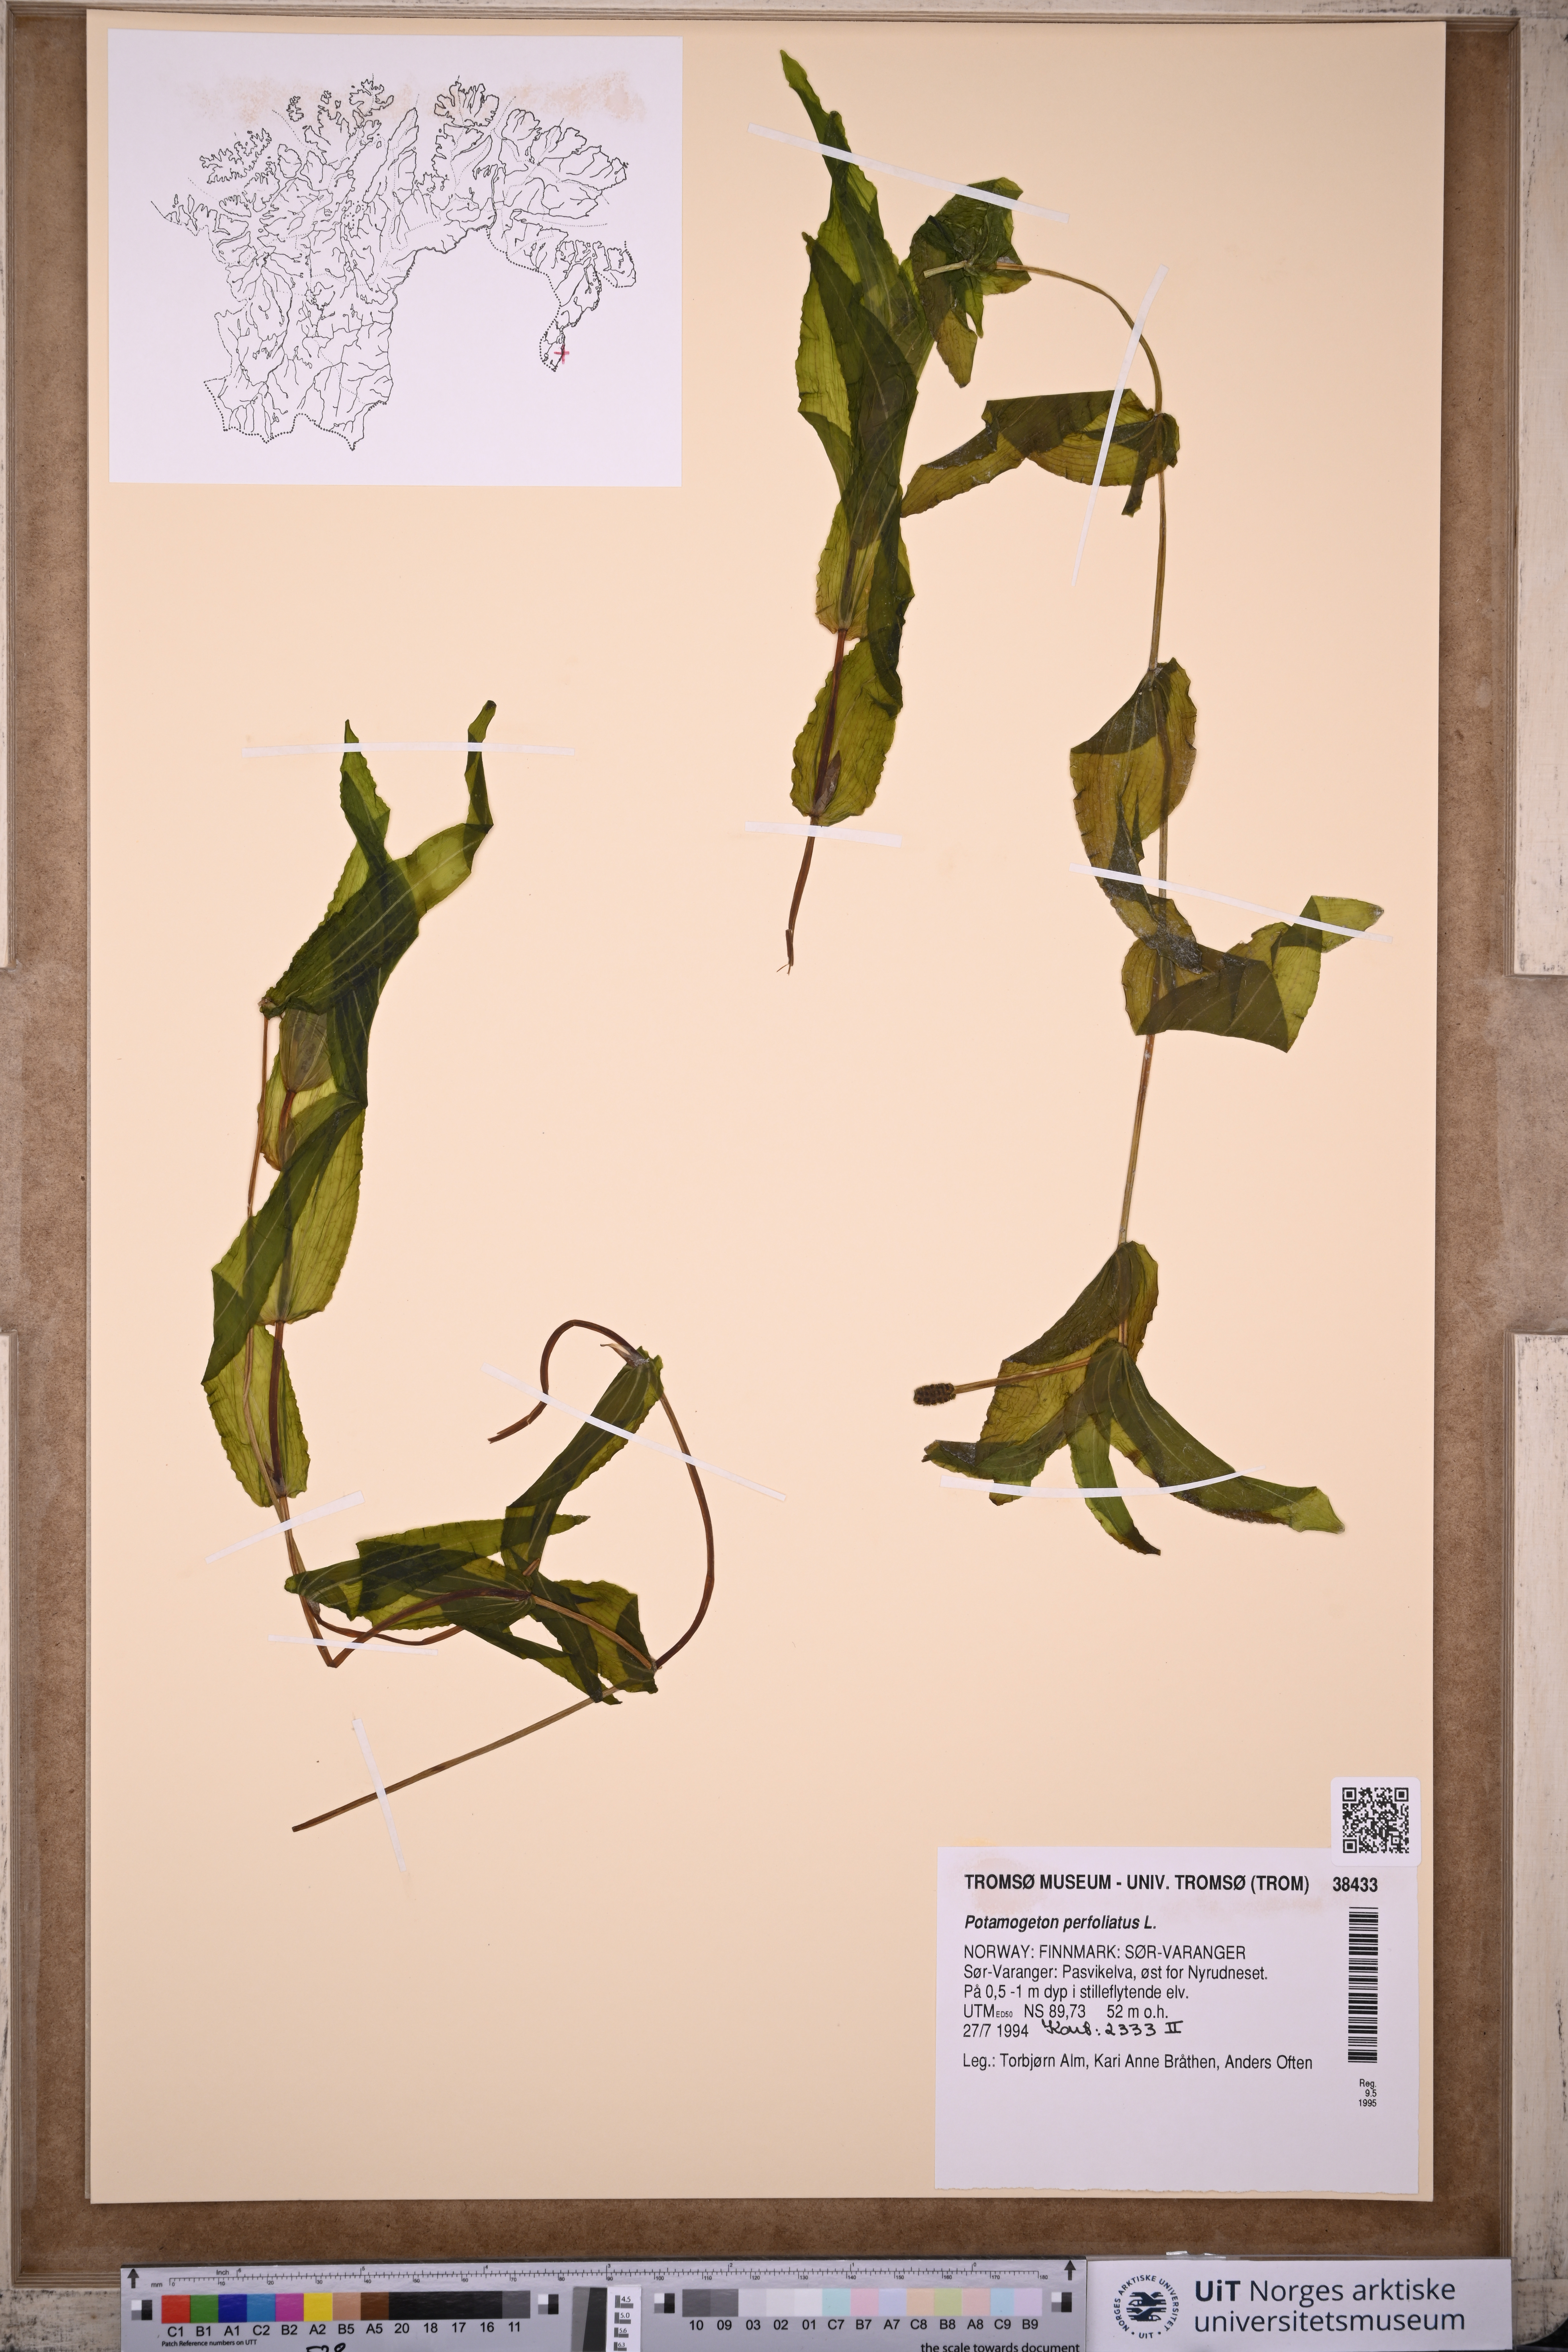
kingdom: Plantae
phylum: Tracheophyta
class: Liliopsida
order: Alismatales
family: Potamogetonaceae
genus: Potamogeton
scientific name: Potamogeton perfoliatus
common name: Perfoliate pondweed
